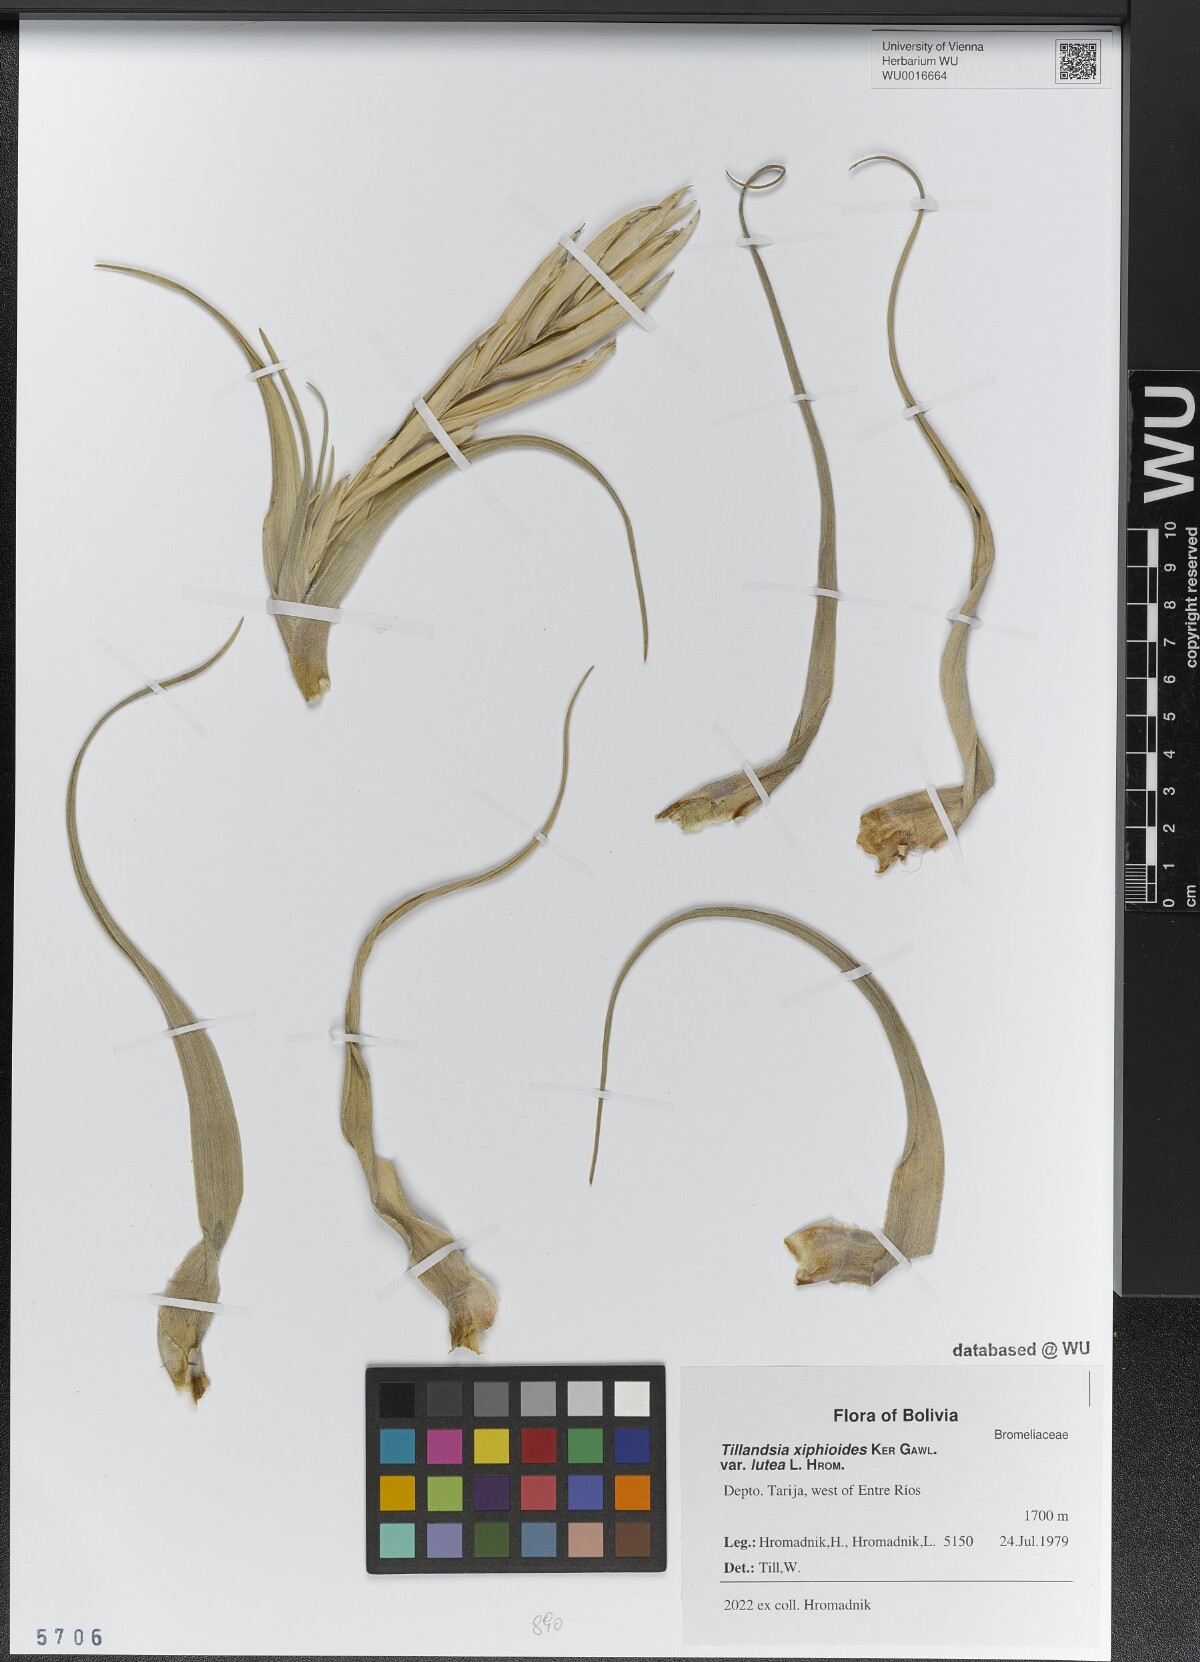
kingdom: Plantae
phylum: Tracheophyta
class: Liliopsida
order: Poales
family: Bromeliaceae
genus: Tillandsia
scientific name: Tillandsia xiphioides
